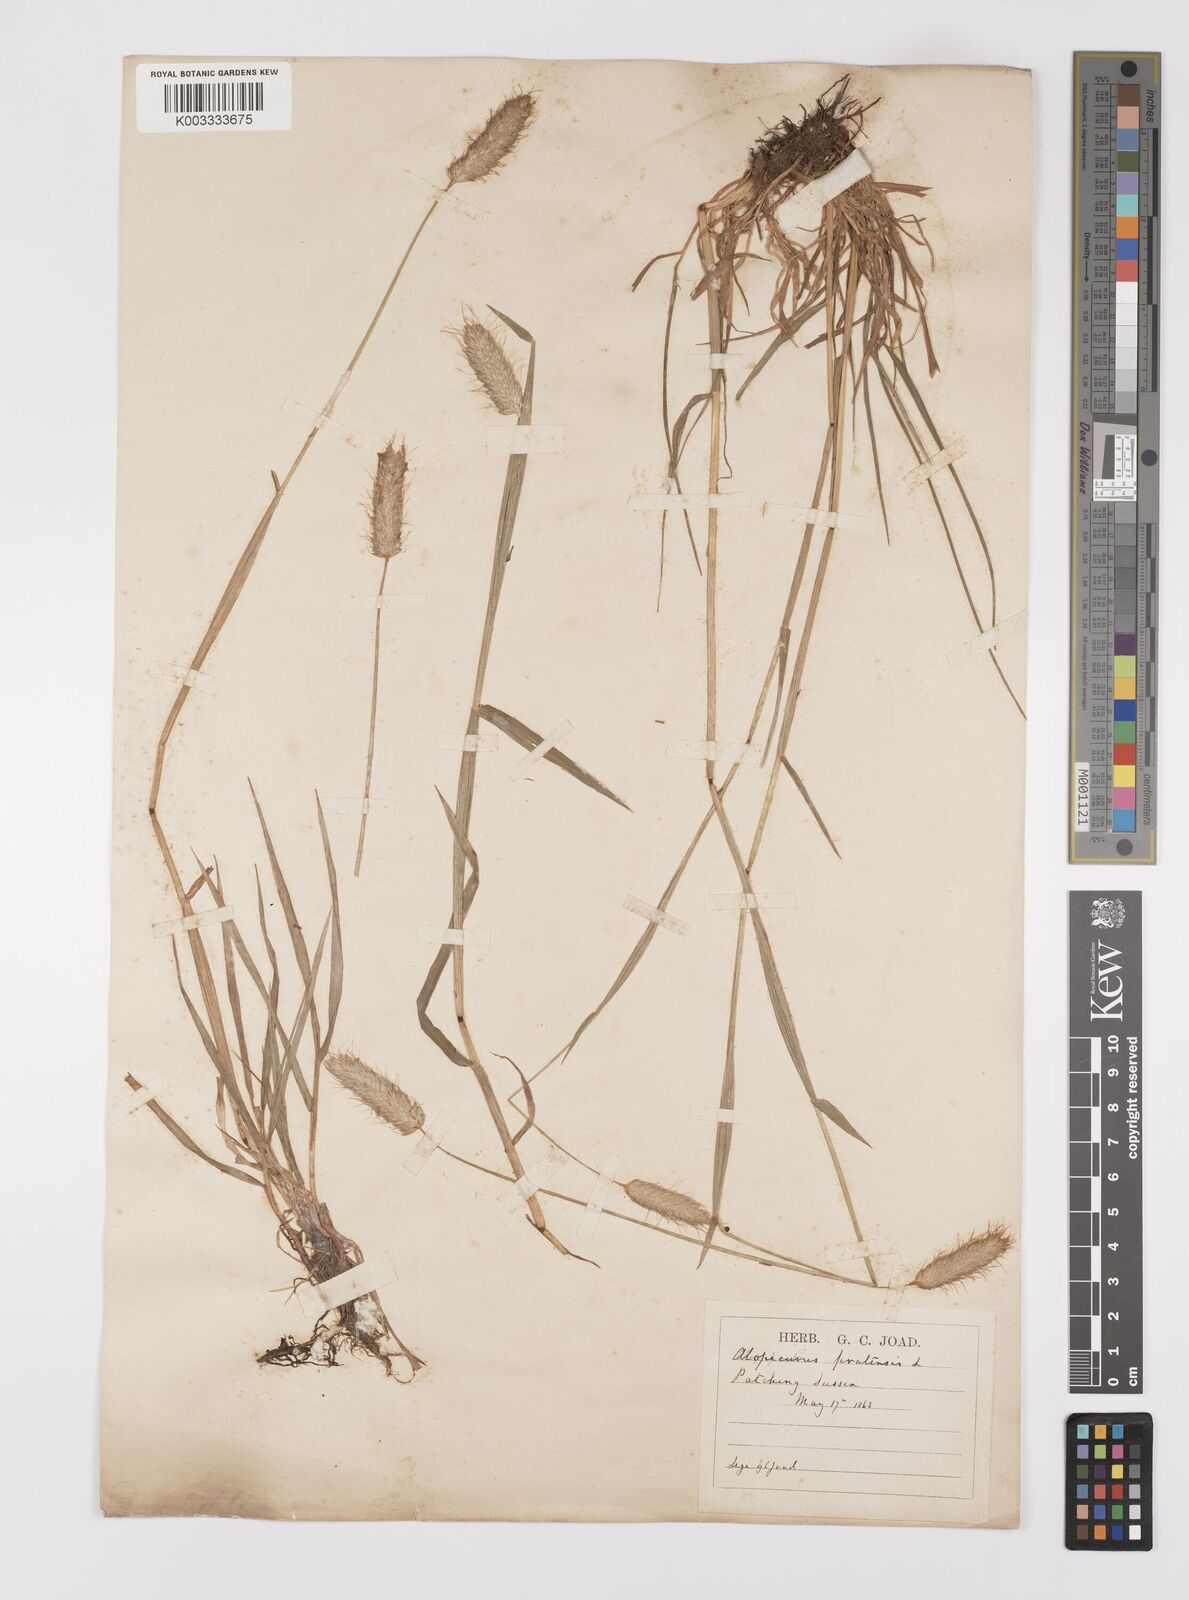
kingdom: Plantae
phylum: Tracheophyta
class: Liliopsida
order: Poales
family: Poaceae
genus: Alopecurus
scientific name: Alopecurus pratensis
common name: Meadow foxtail
